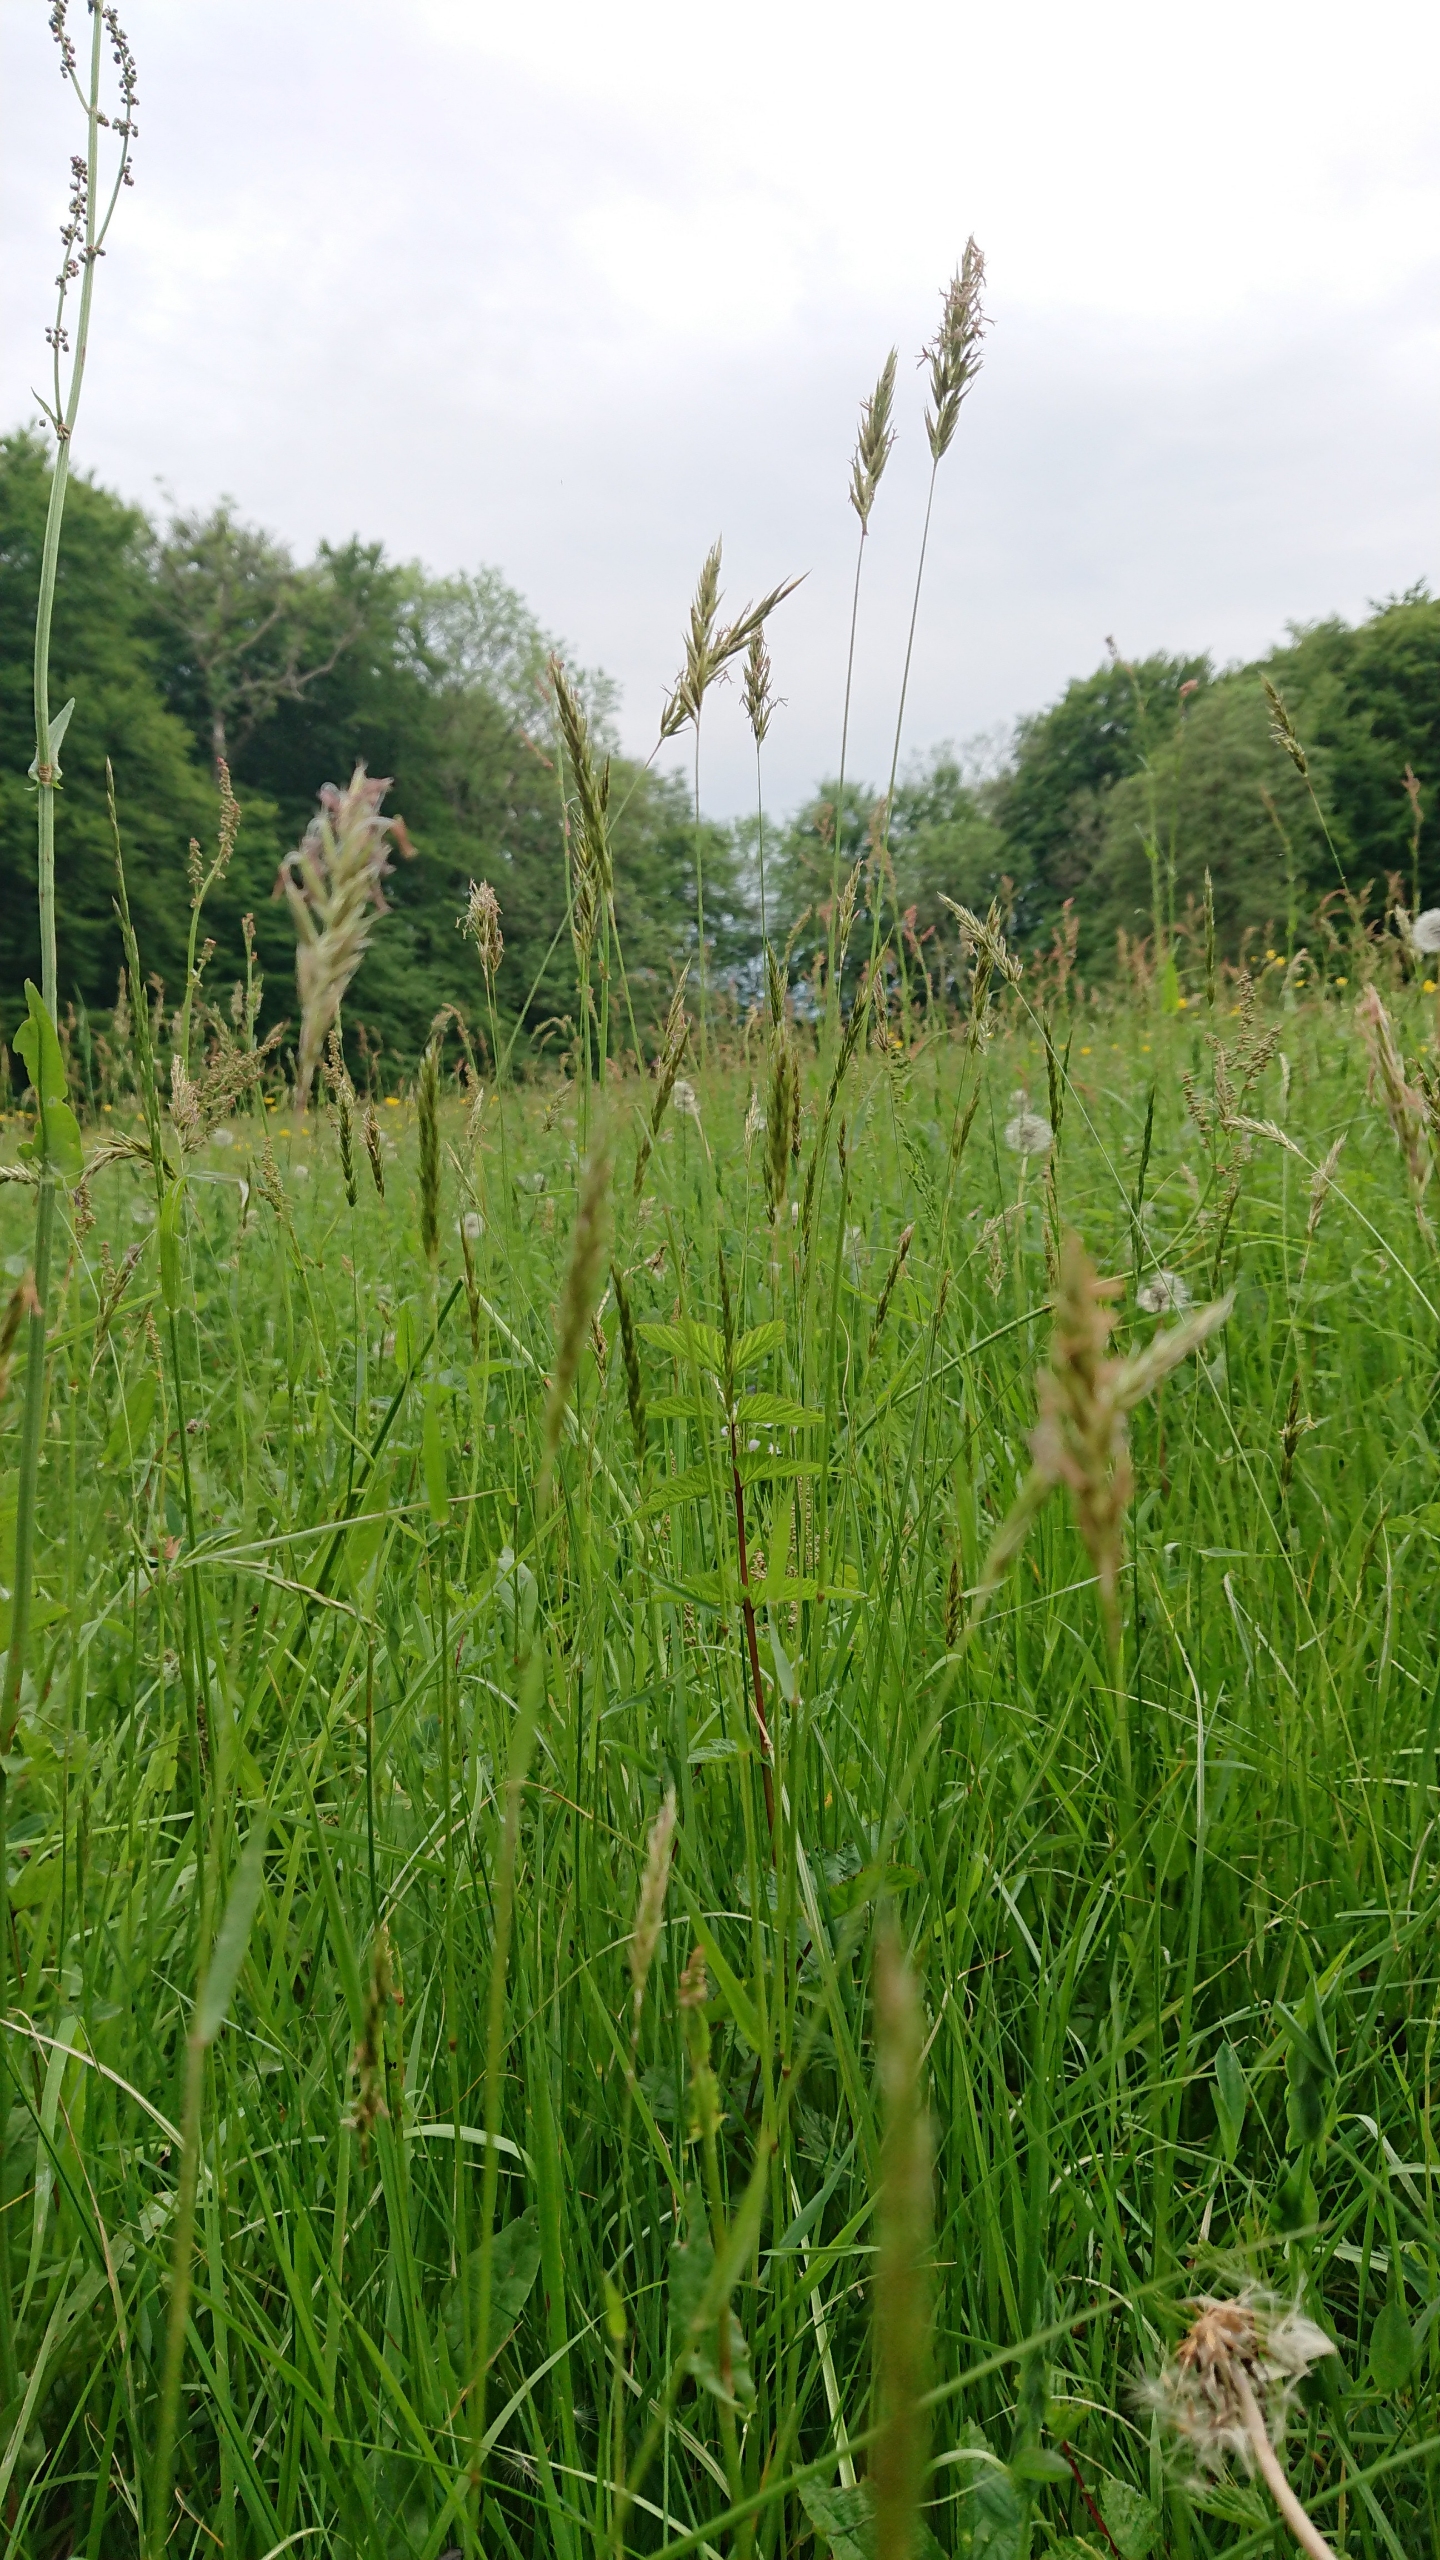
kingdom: Plantae
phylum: Tracheophyta
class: Liliopsida
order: Poales
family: Poaceae
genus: Anthoxanthum
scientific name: Anthoxanthum odoratum
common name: Vellugtende gulaks
